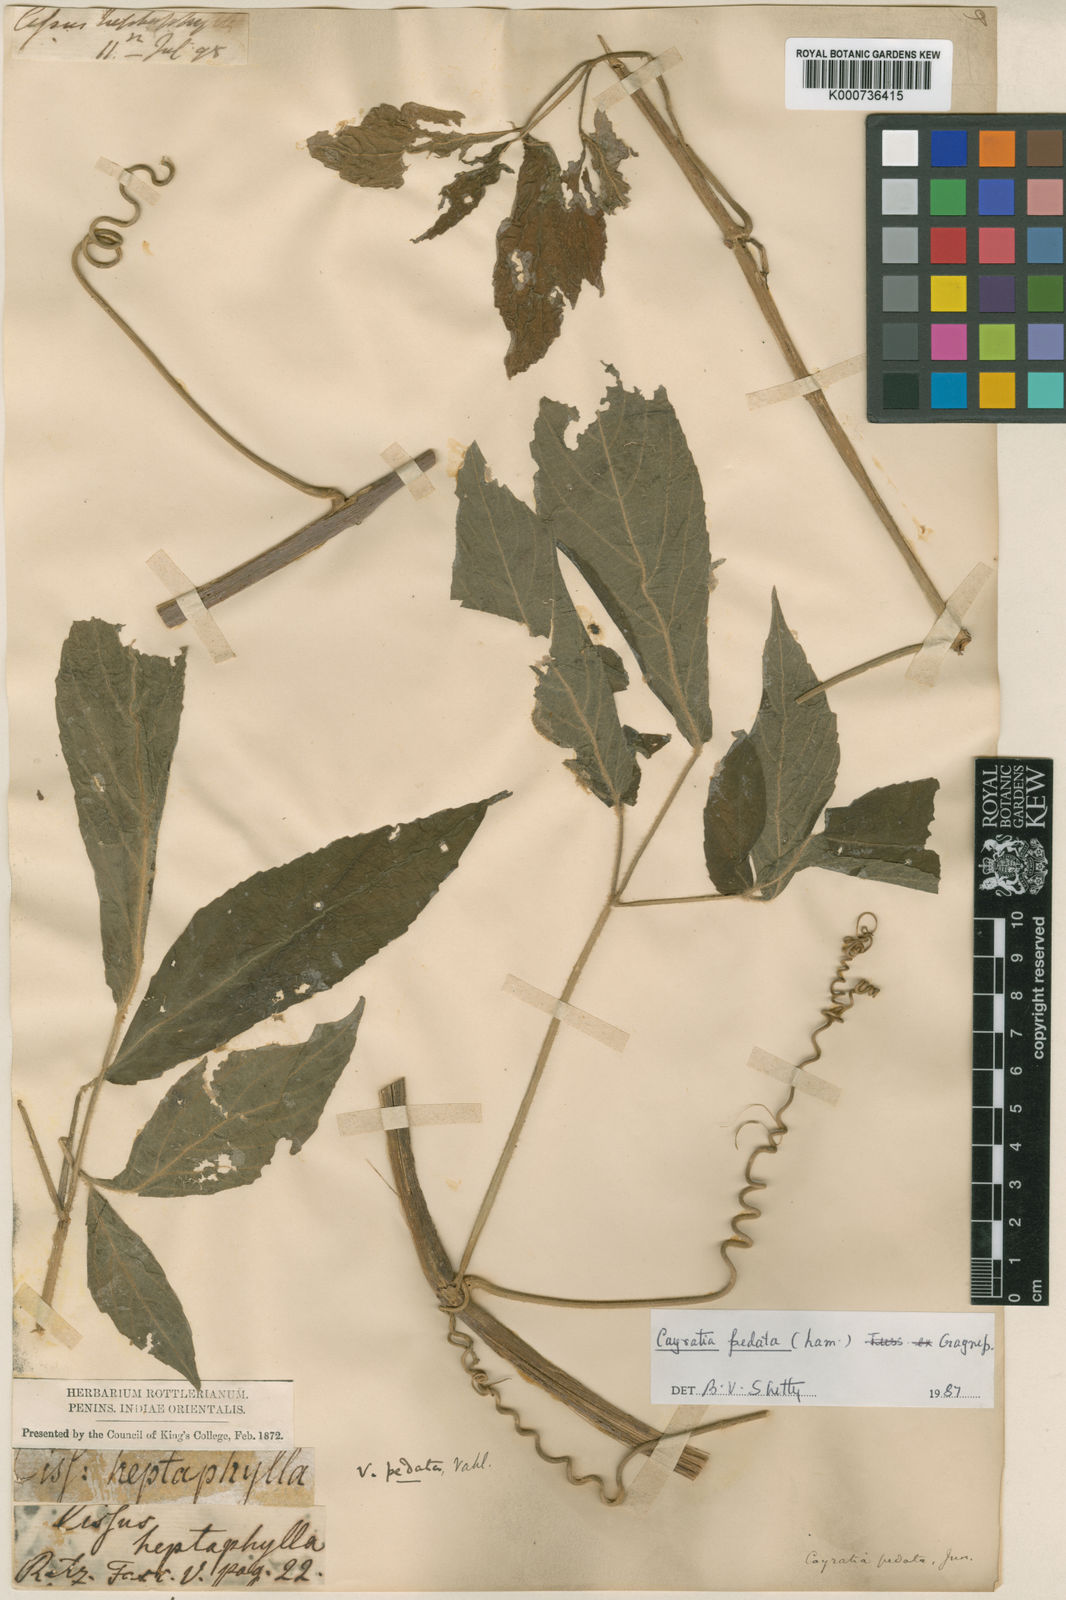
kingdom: Plantae
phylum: Tracheophyta
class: Magnoliopsida
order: Vitales
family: Vitaceae
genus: Cayratia
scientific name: Cayratia pedata
